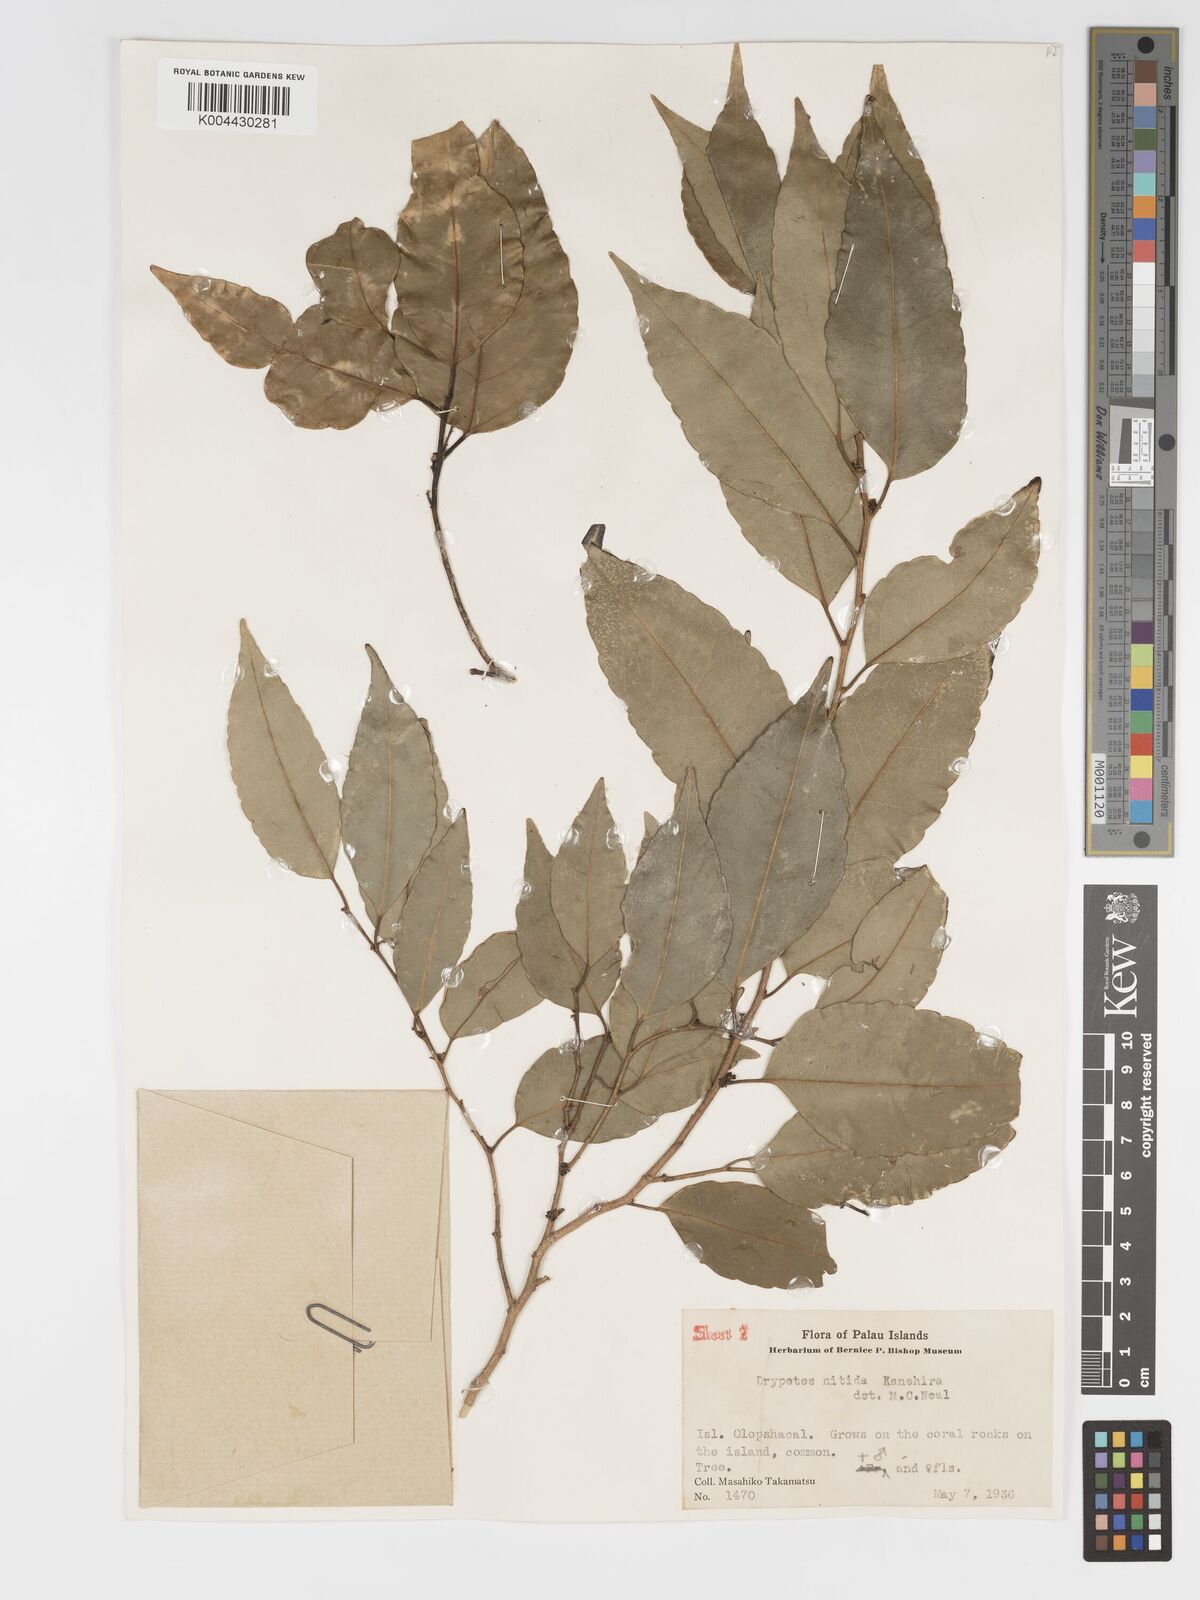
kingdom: Plantae
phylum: Tracheophyta
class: Magnoliopsida
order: Malpighiales
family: Putranjivaceae
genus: Drypetes
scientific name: Drypetes nitida
